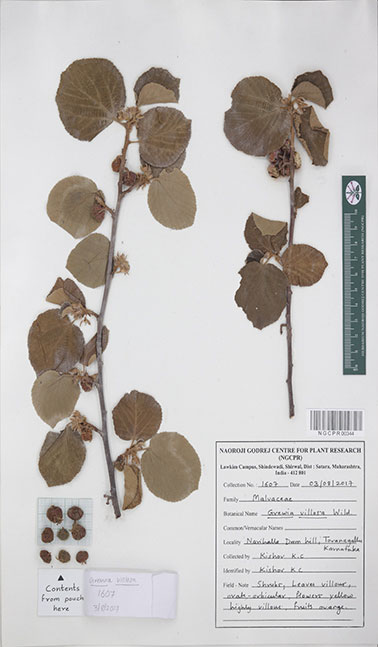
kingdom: Plantae
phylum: Tracheophyta
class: Magnoliopsida
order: Malvales
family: Malvaceae
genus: Grewia
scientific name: Grewia villosa
